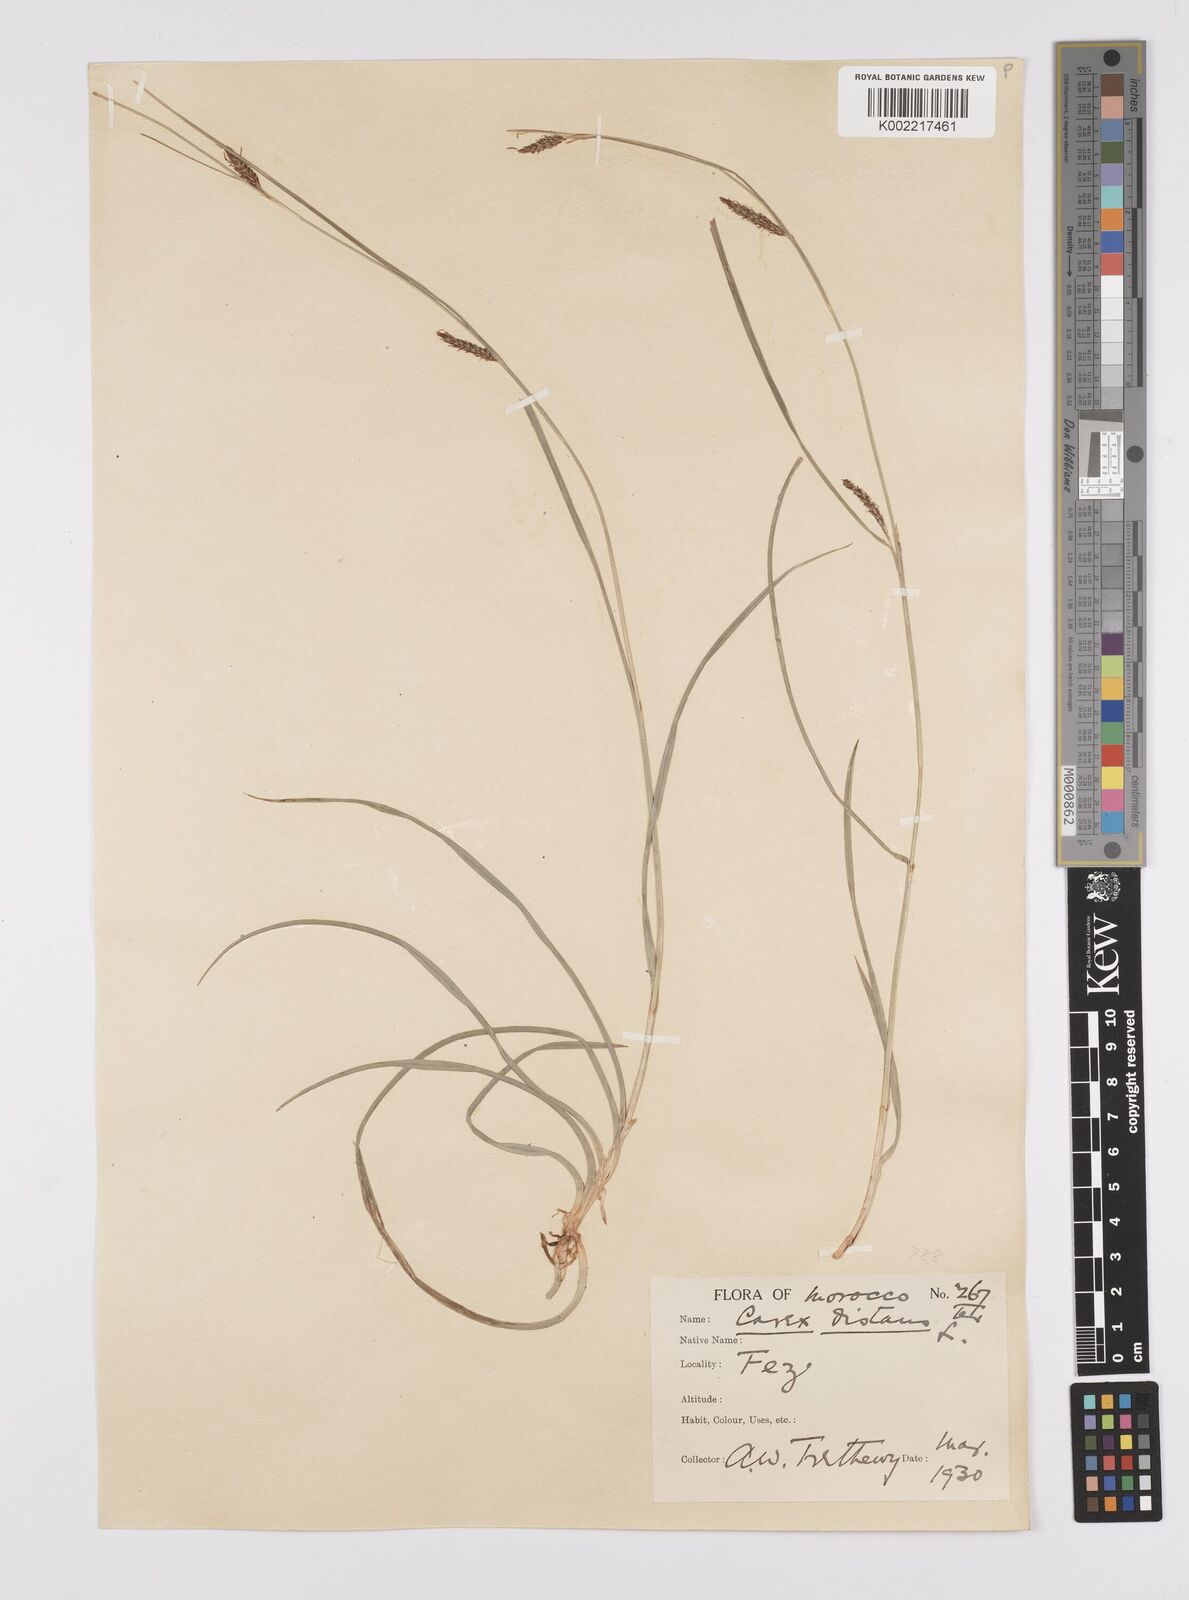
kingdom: Plantae
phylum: Tracheophyta
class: Liliopsida
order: Poales
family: Cyperaceae
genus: Carex
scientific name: Carex distans
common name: Distant sedge
